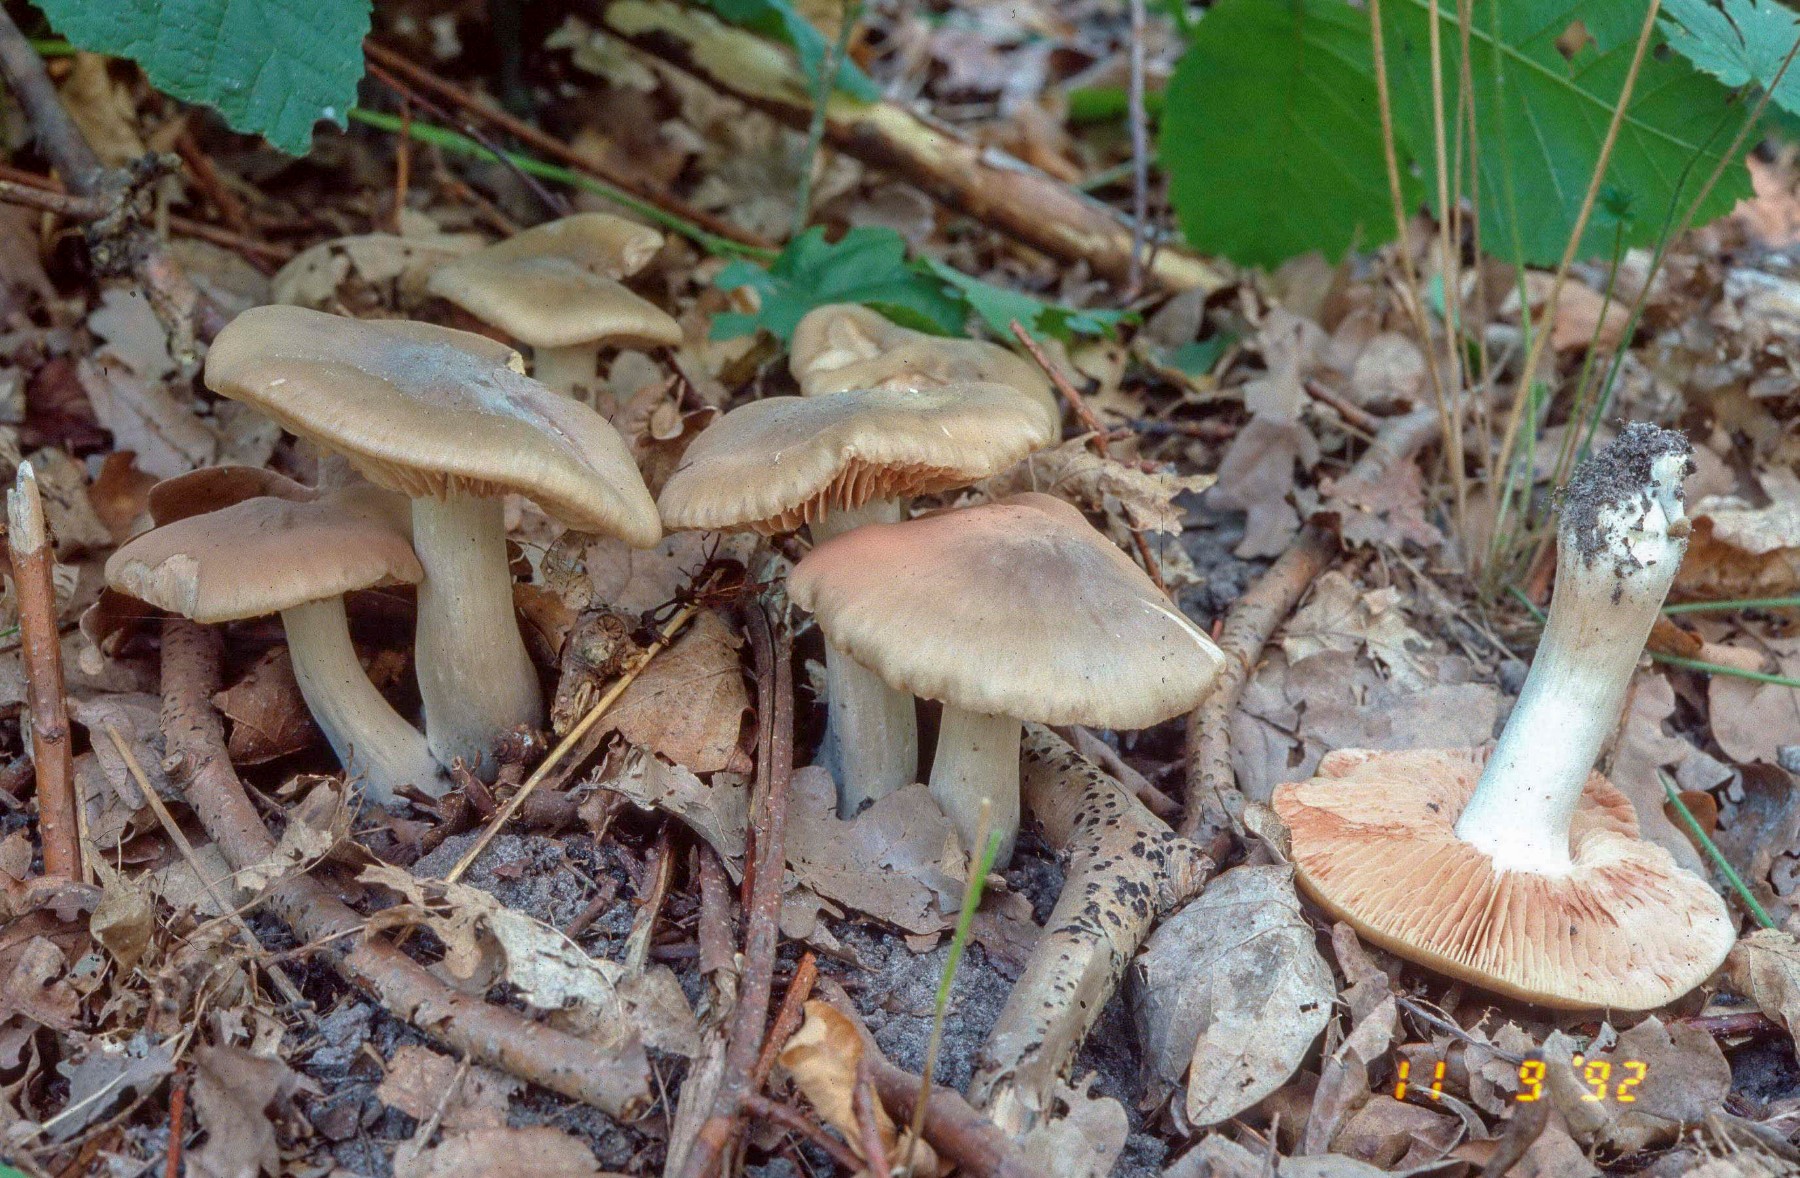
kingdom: Fungi
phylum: Basidiomycota
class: Agaricomycetes
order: Agaricales
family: Entolomataceae
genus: Entoloma
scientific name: Entoloma lividoalbum
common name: lysstokket rødblad
